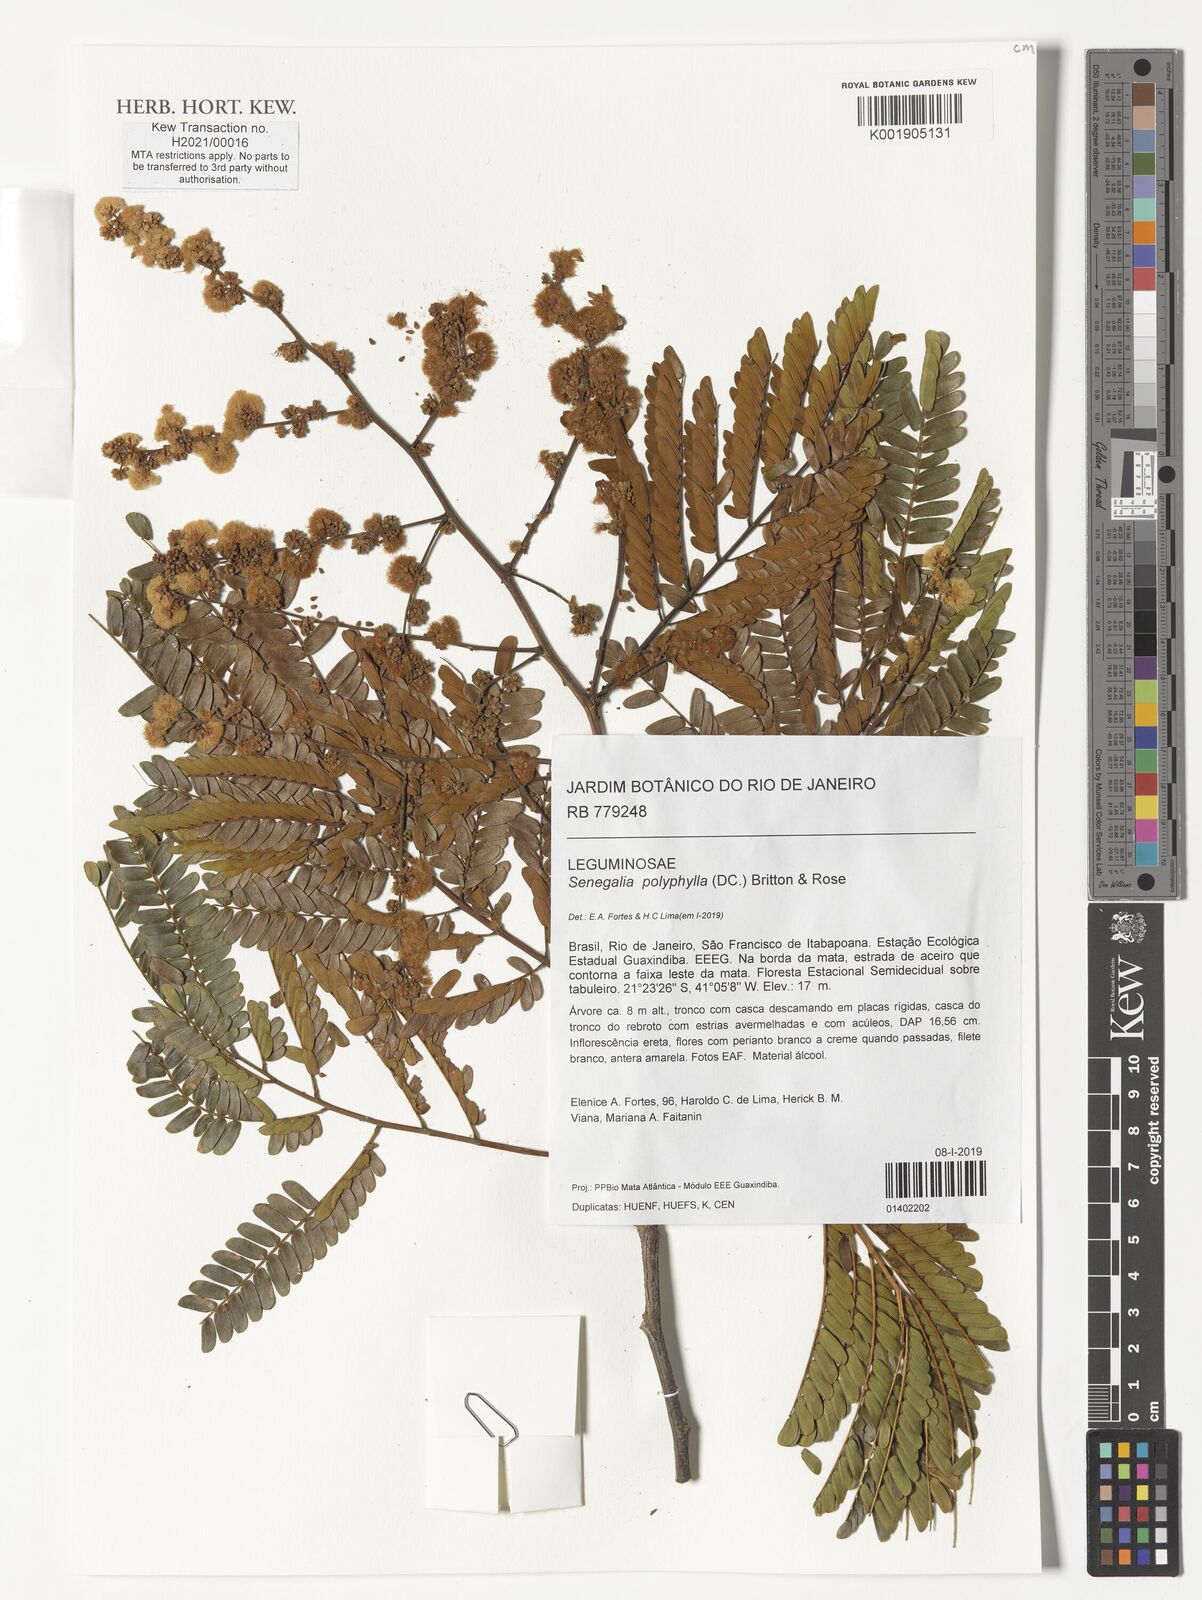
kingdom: Plantae
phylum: Tracheophyta
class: Magnoliopsida
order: Fabales
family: Fabaceae
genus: Senegalia
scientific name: Senegalia polyphylla
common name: White-tamarind
